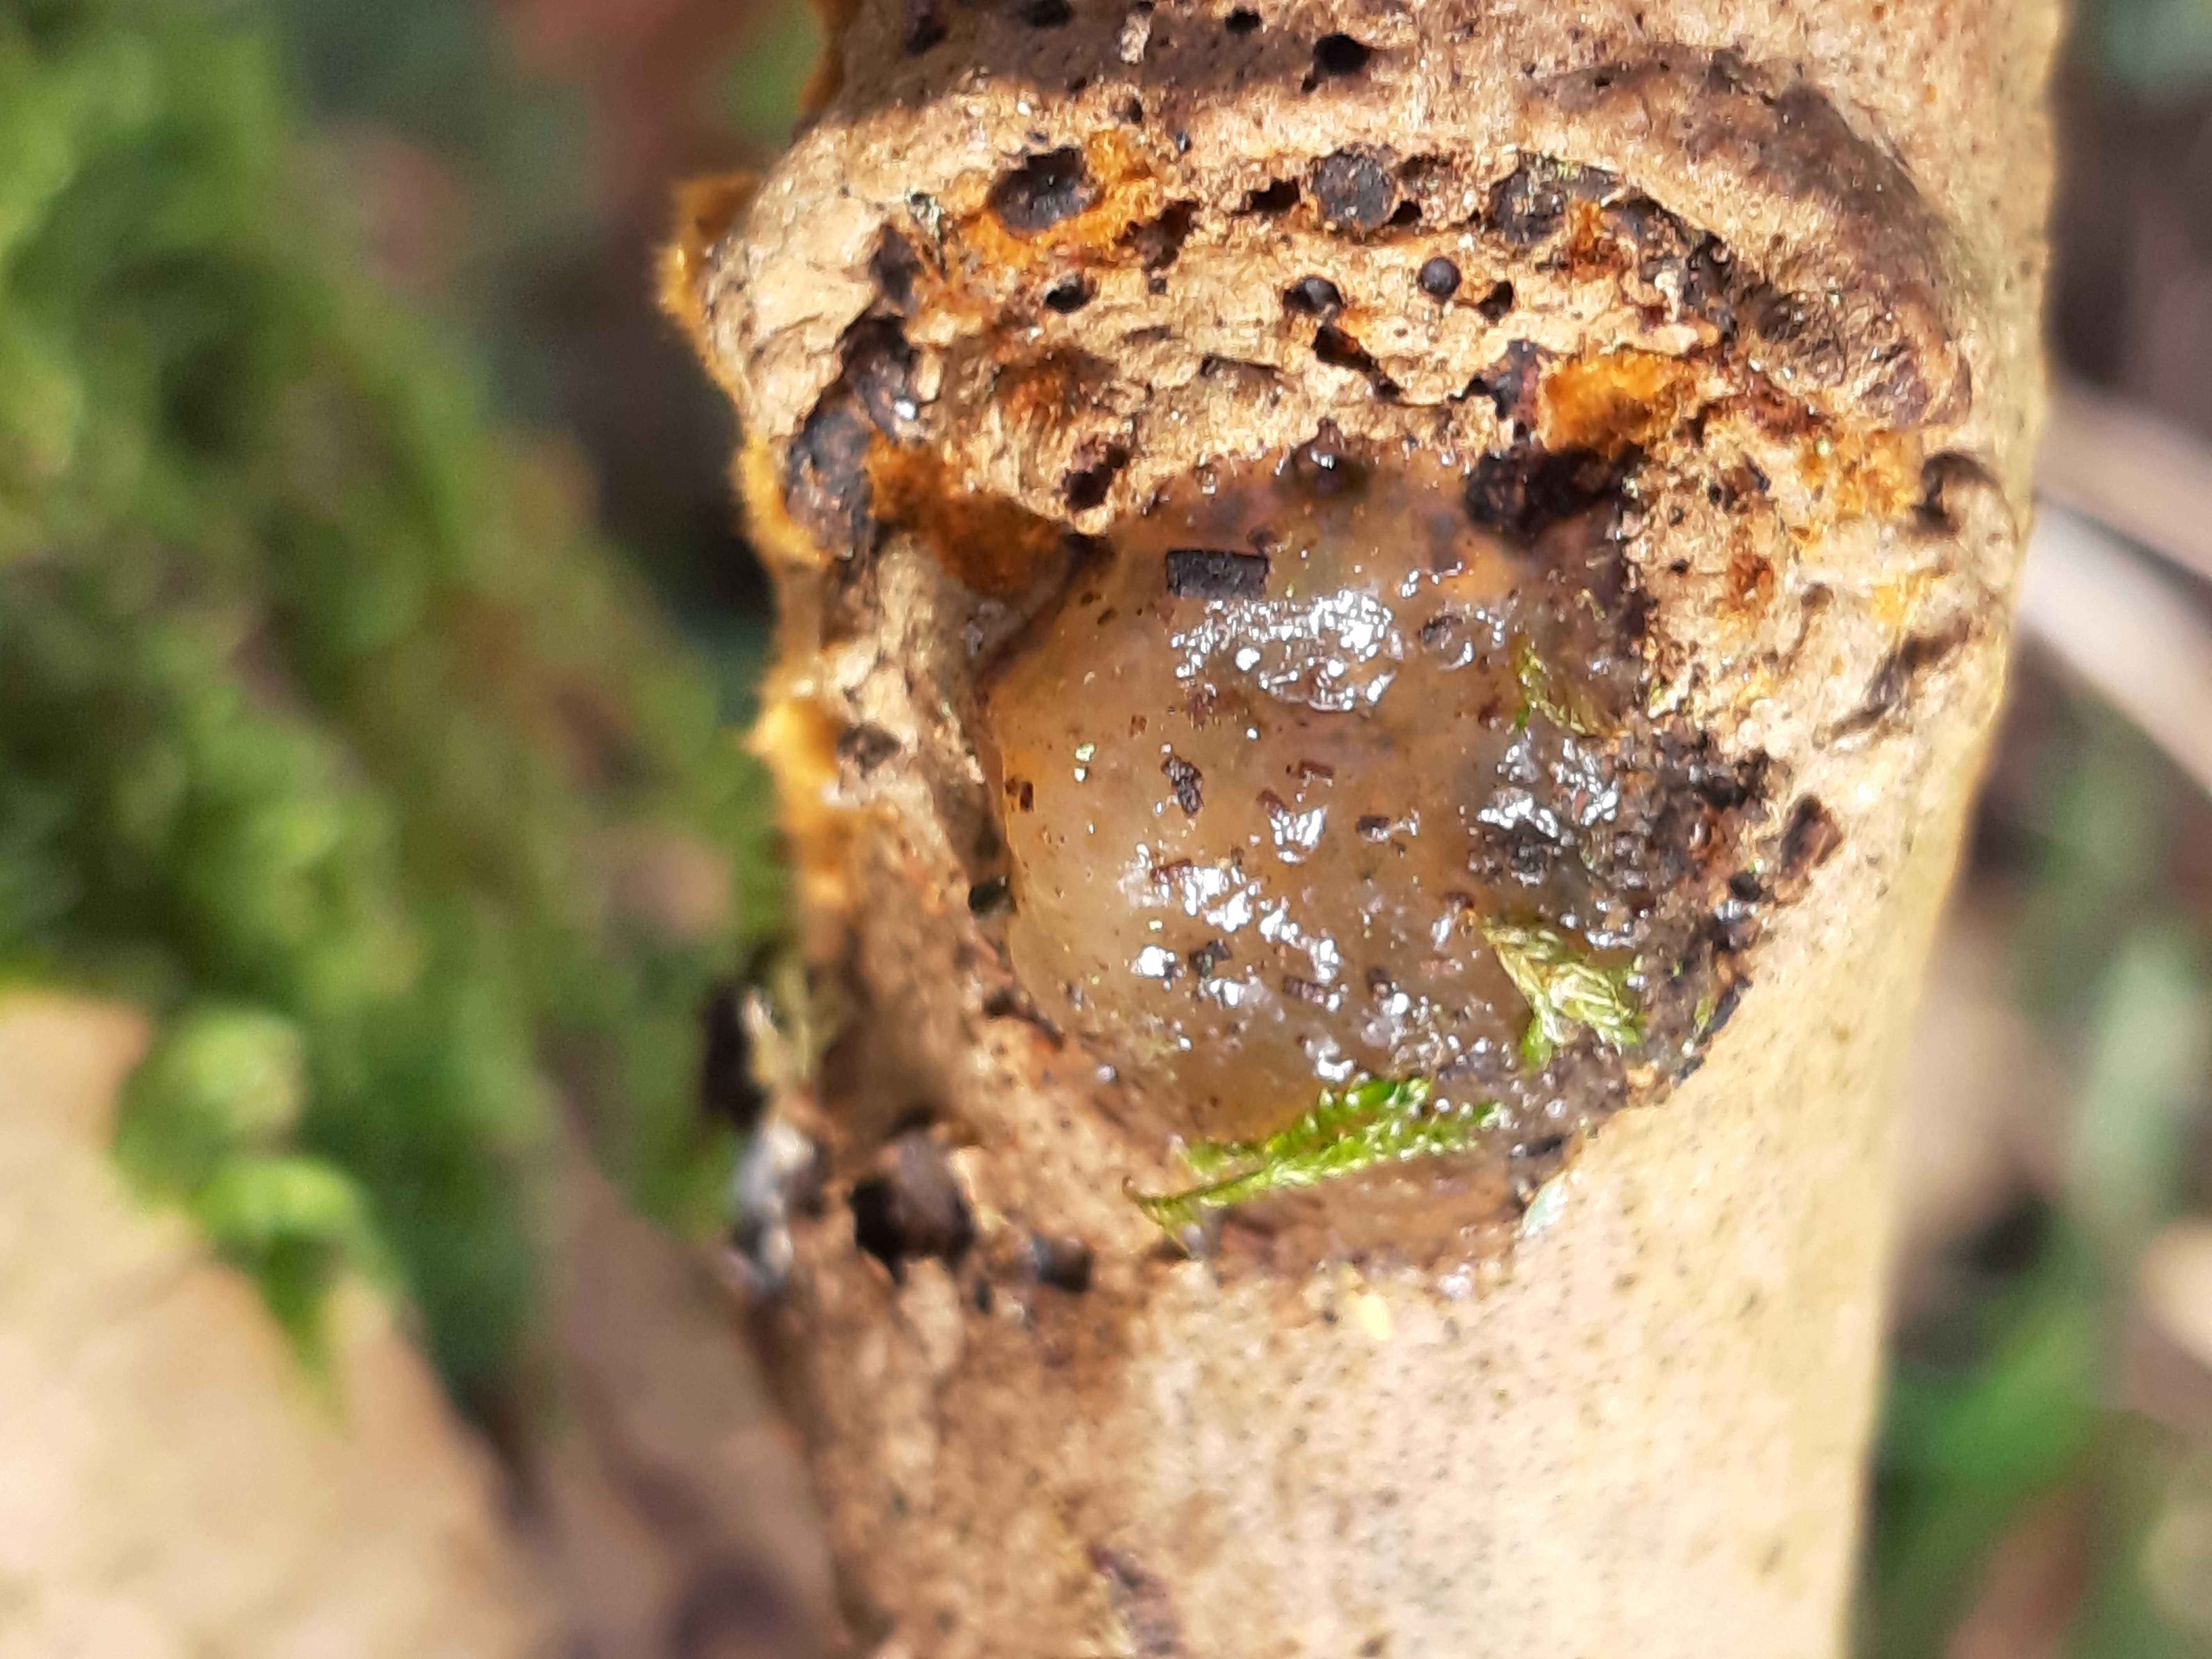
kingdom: Fungi
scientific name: Fungi
